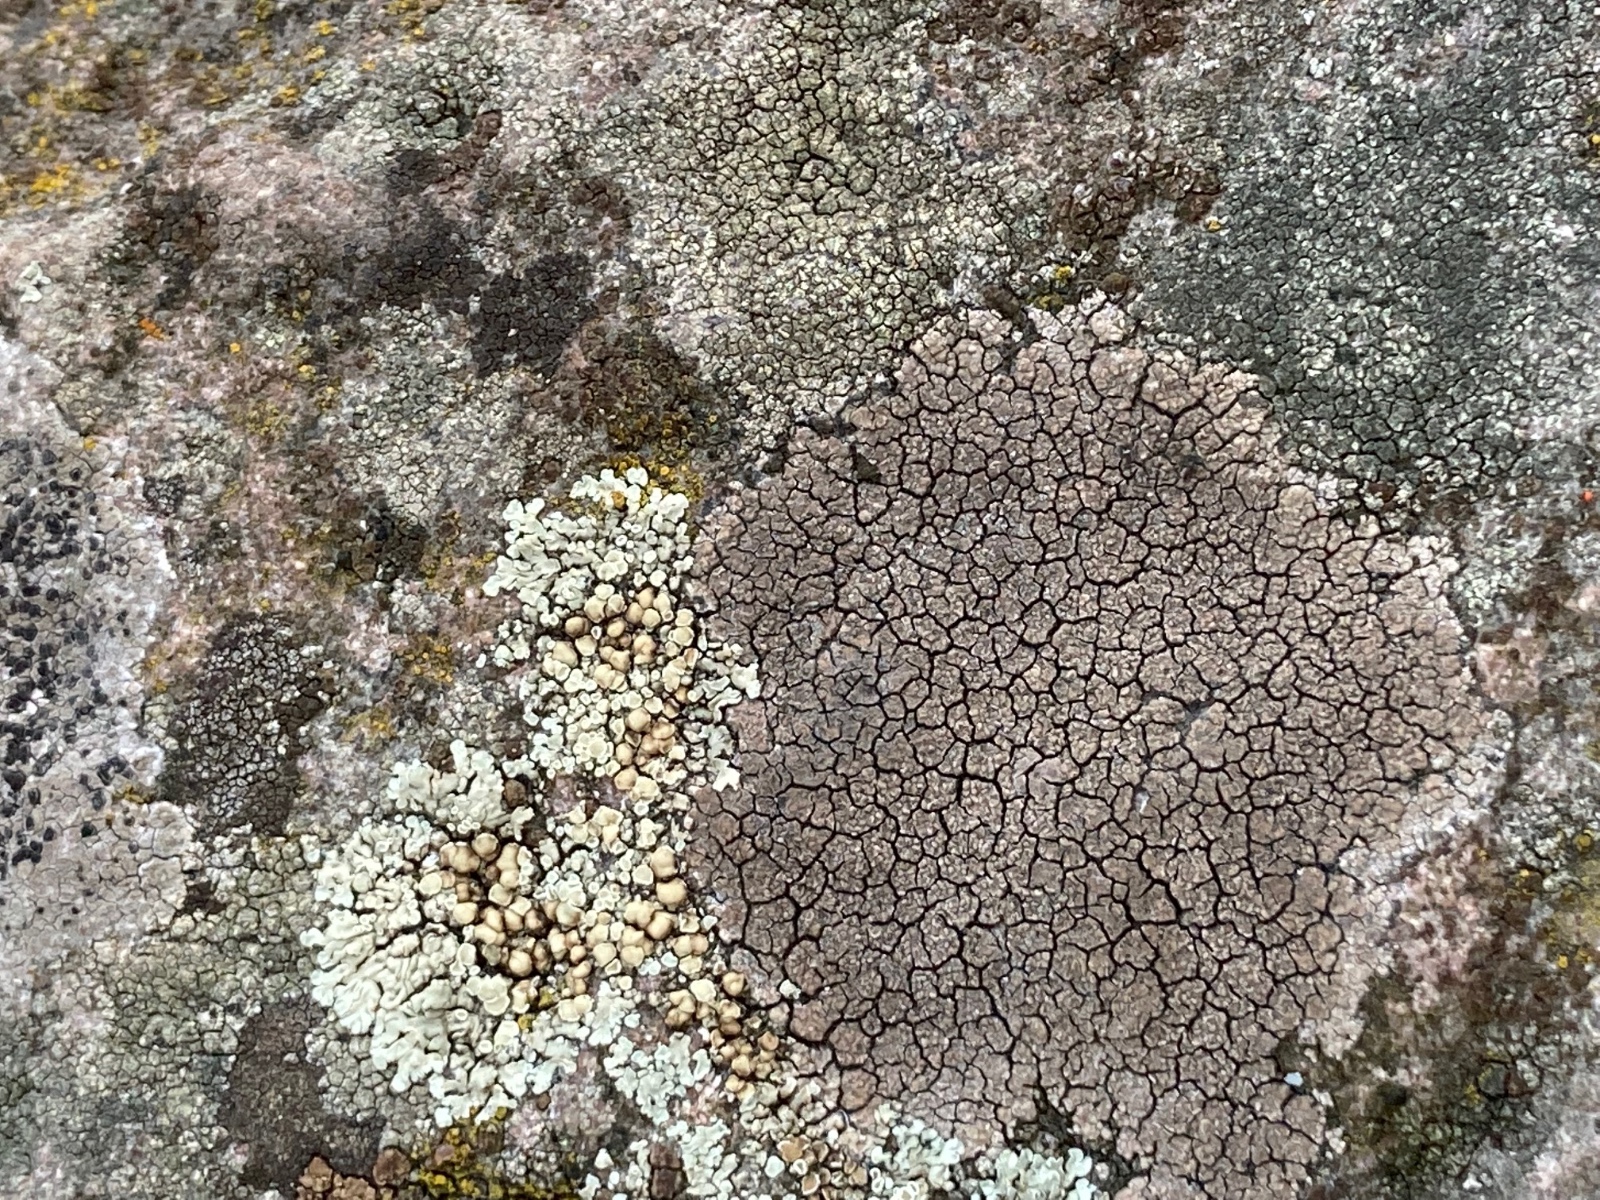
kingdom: Fungi
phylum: Ascomycota
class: Lecanoromycetes
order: Lecideales
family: Lecideaceae
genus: Lecidea
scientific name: Lecidea fuscoatra
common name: rudret skivelav
